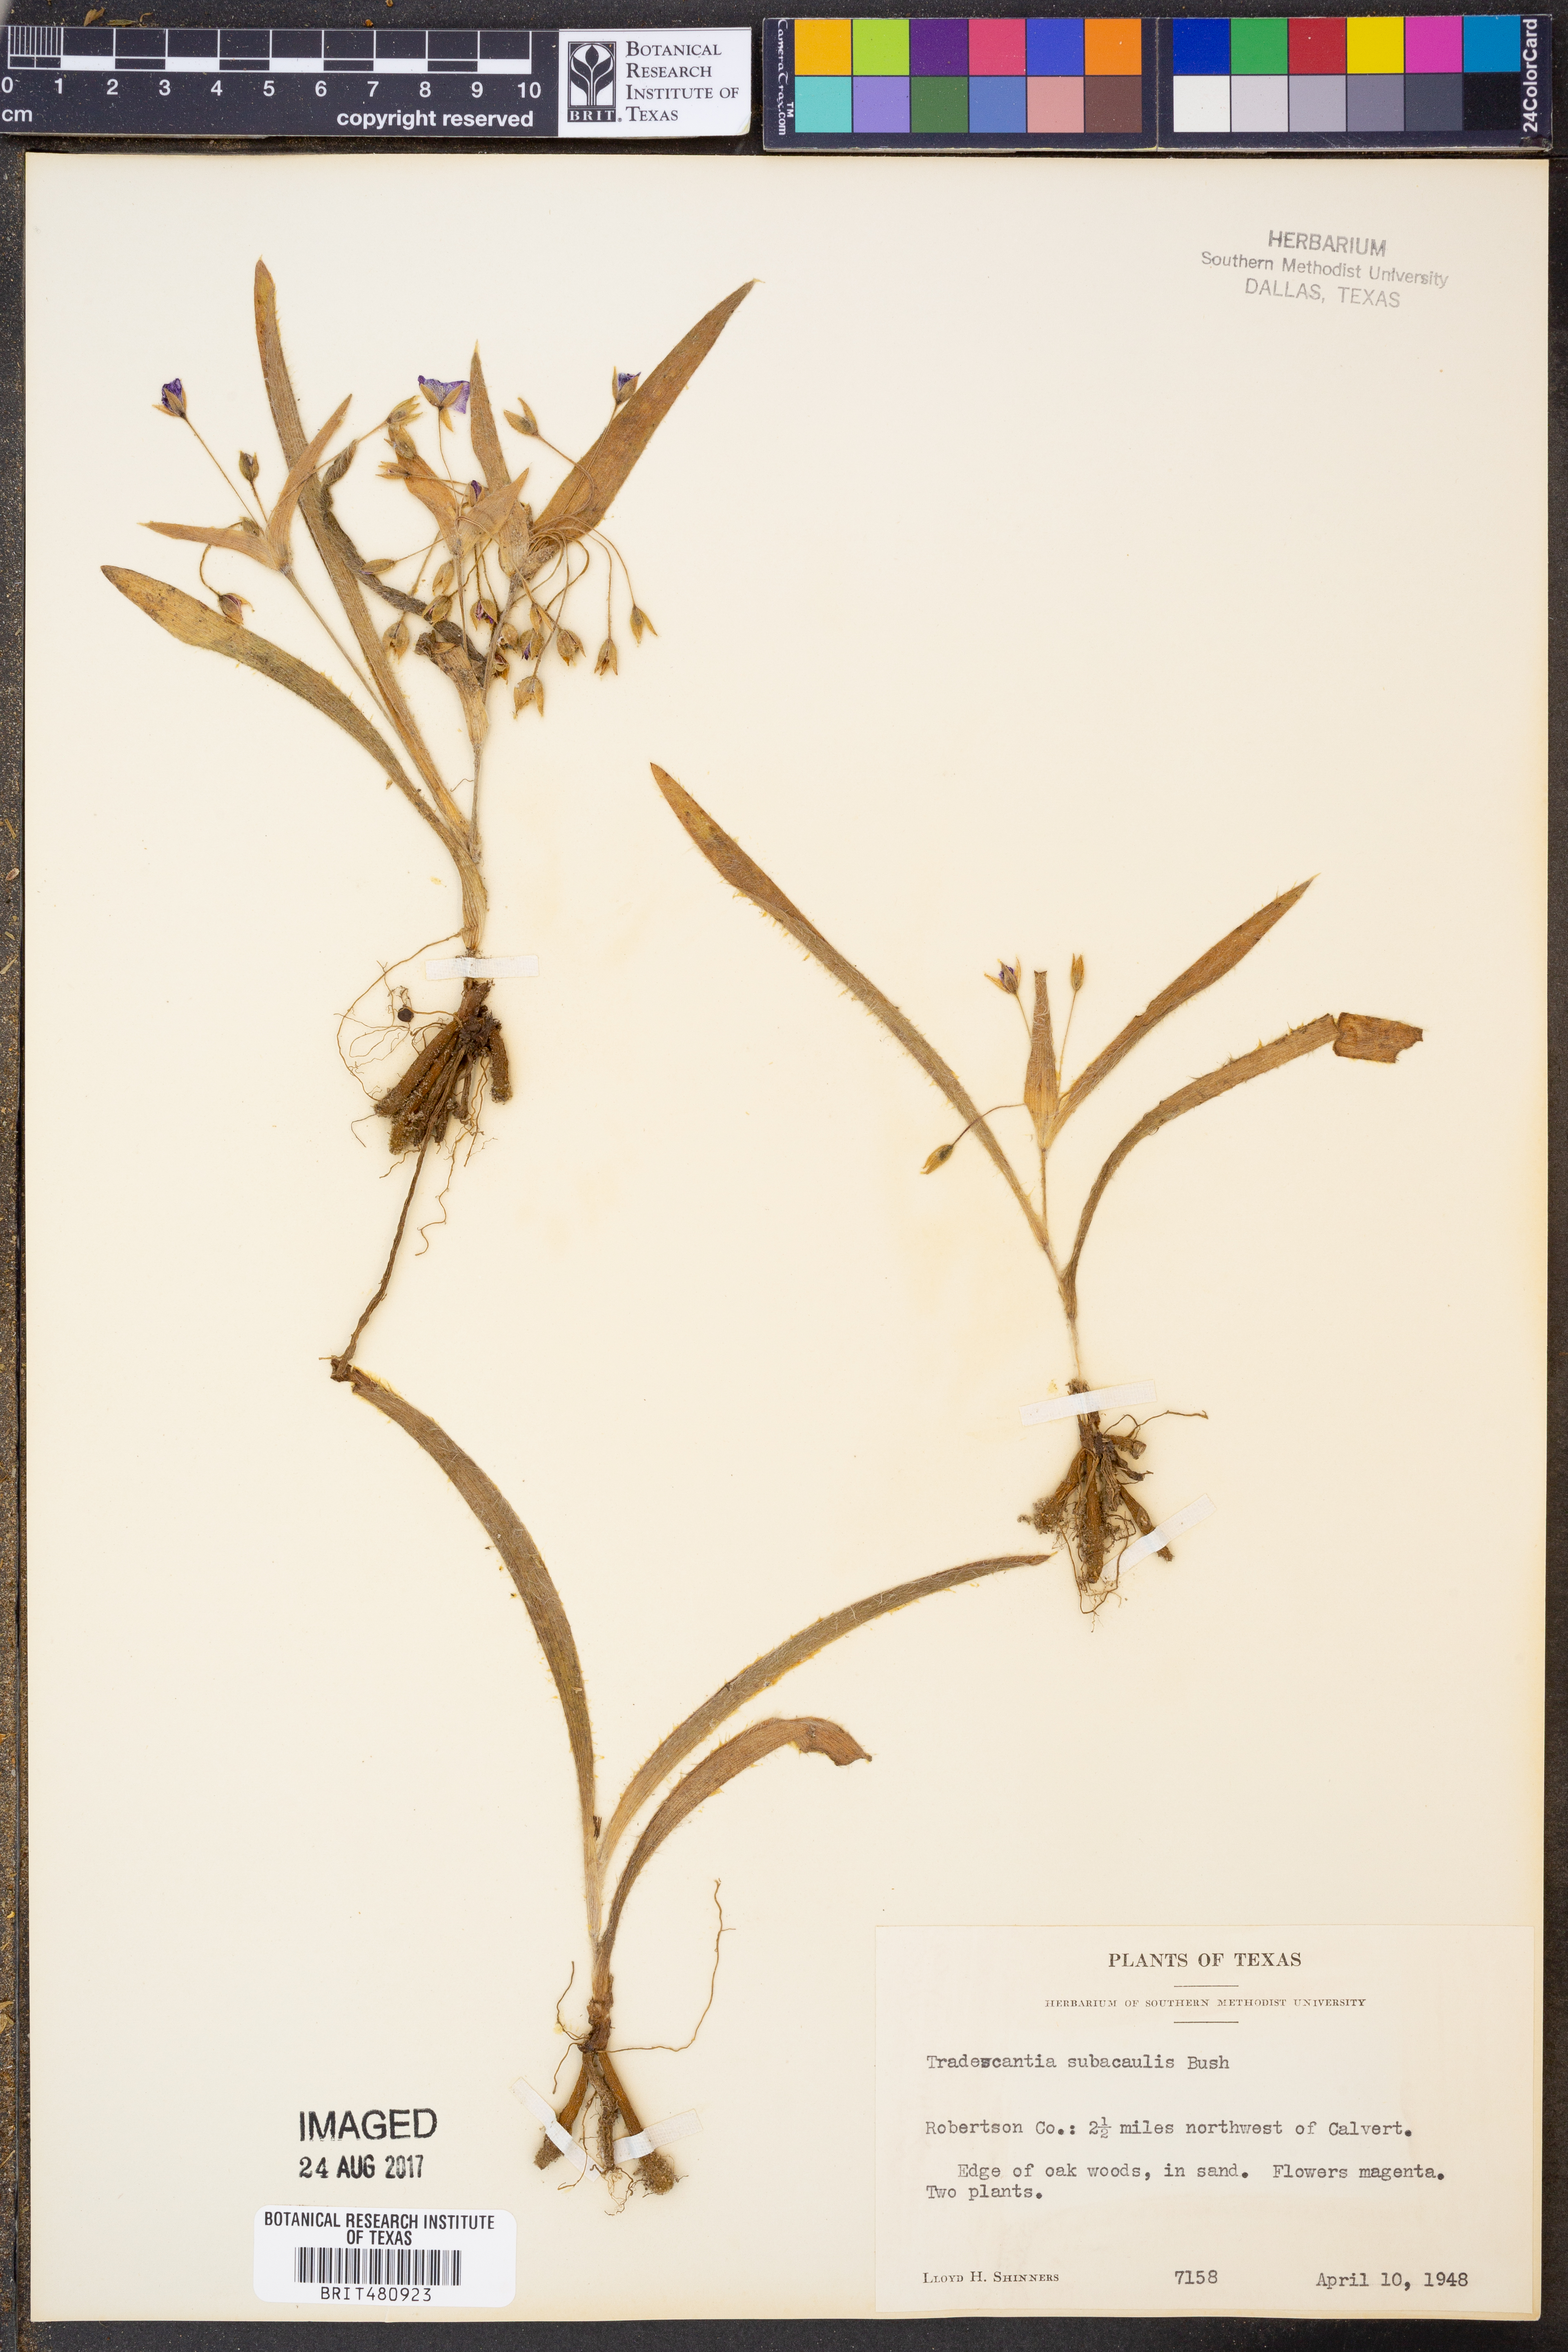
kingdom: Plantae
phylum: Tracheophyta
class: Liliopsida
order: Commelinales
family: Commelinaceae
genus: Tradescantia
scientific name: Tradescantia subacaulis
